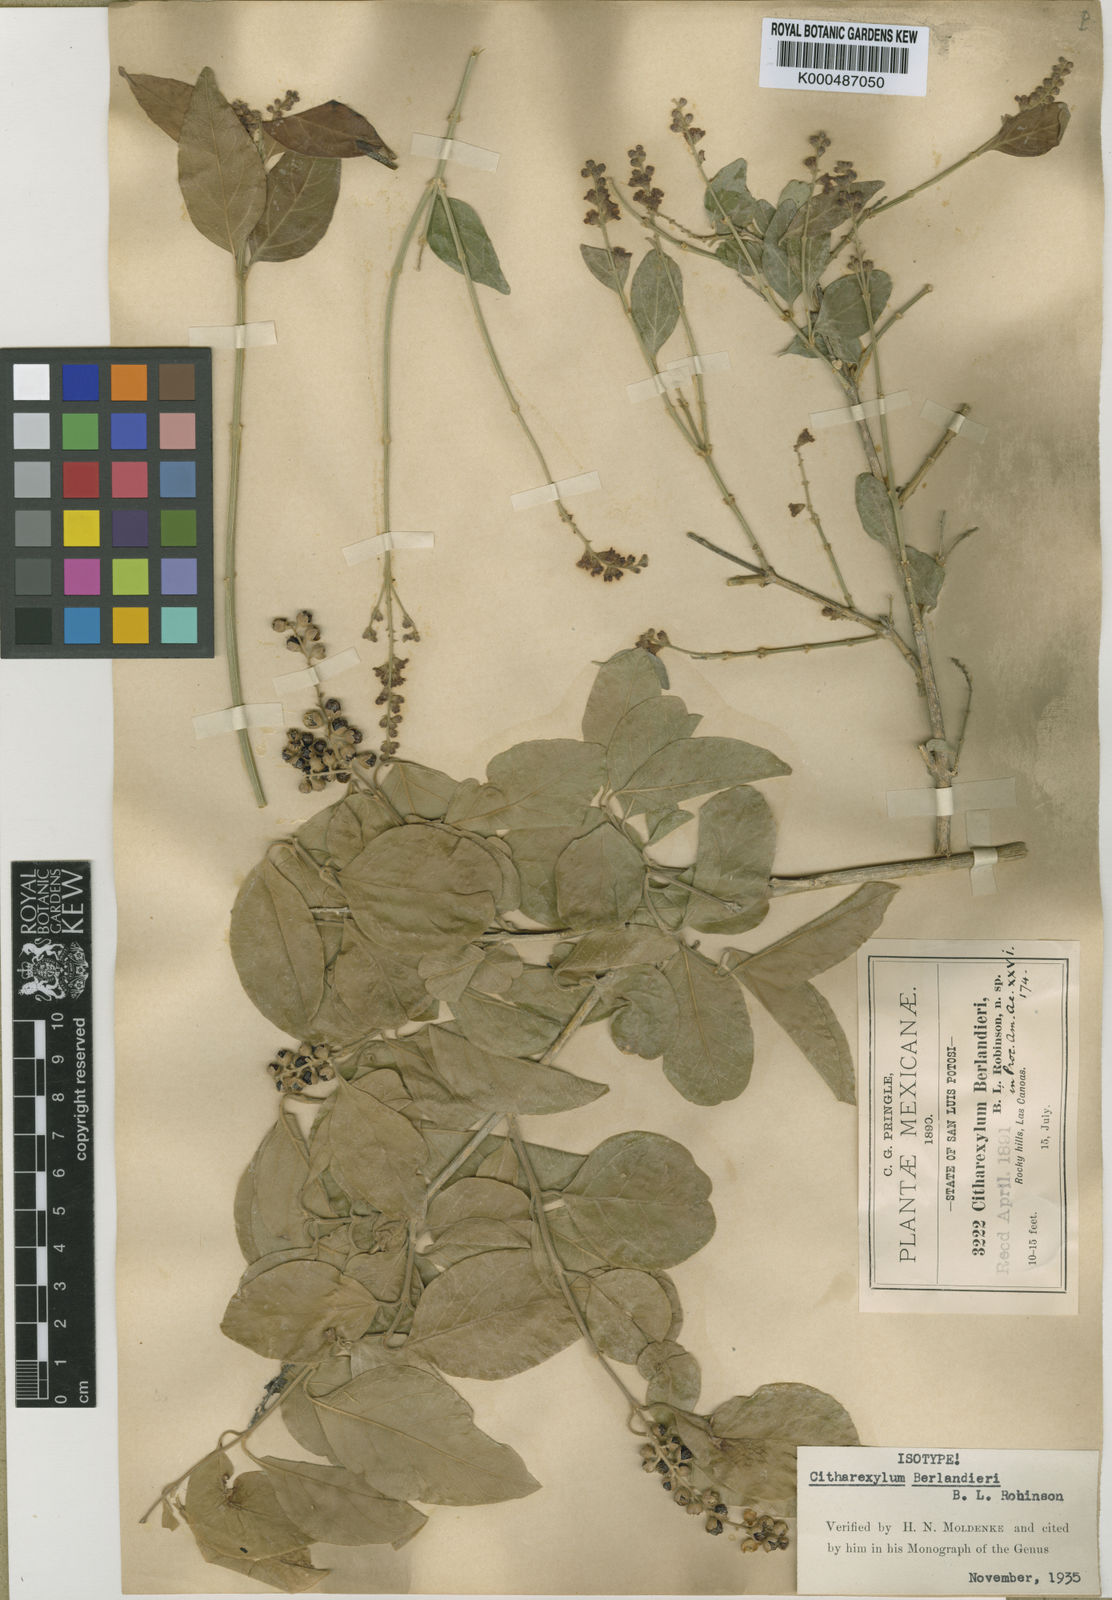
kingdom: Plantae
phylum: Tracheophyta
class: Magnoliopsida
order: Lamiales
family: Verbenaceae
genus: Citharexylum
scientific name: Citharexylum berlandieri
